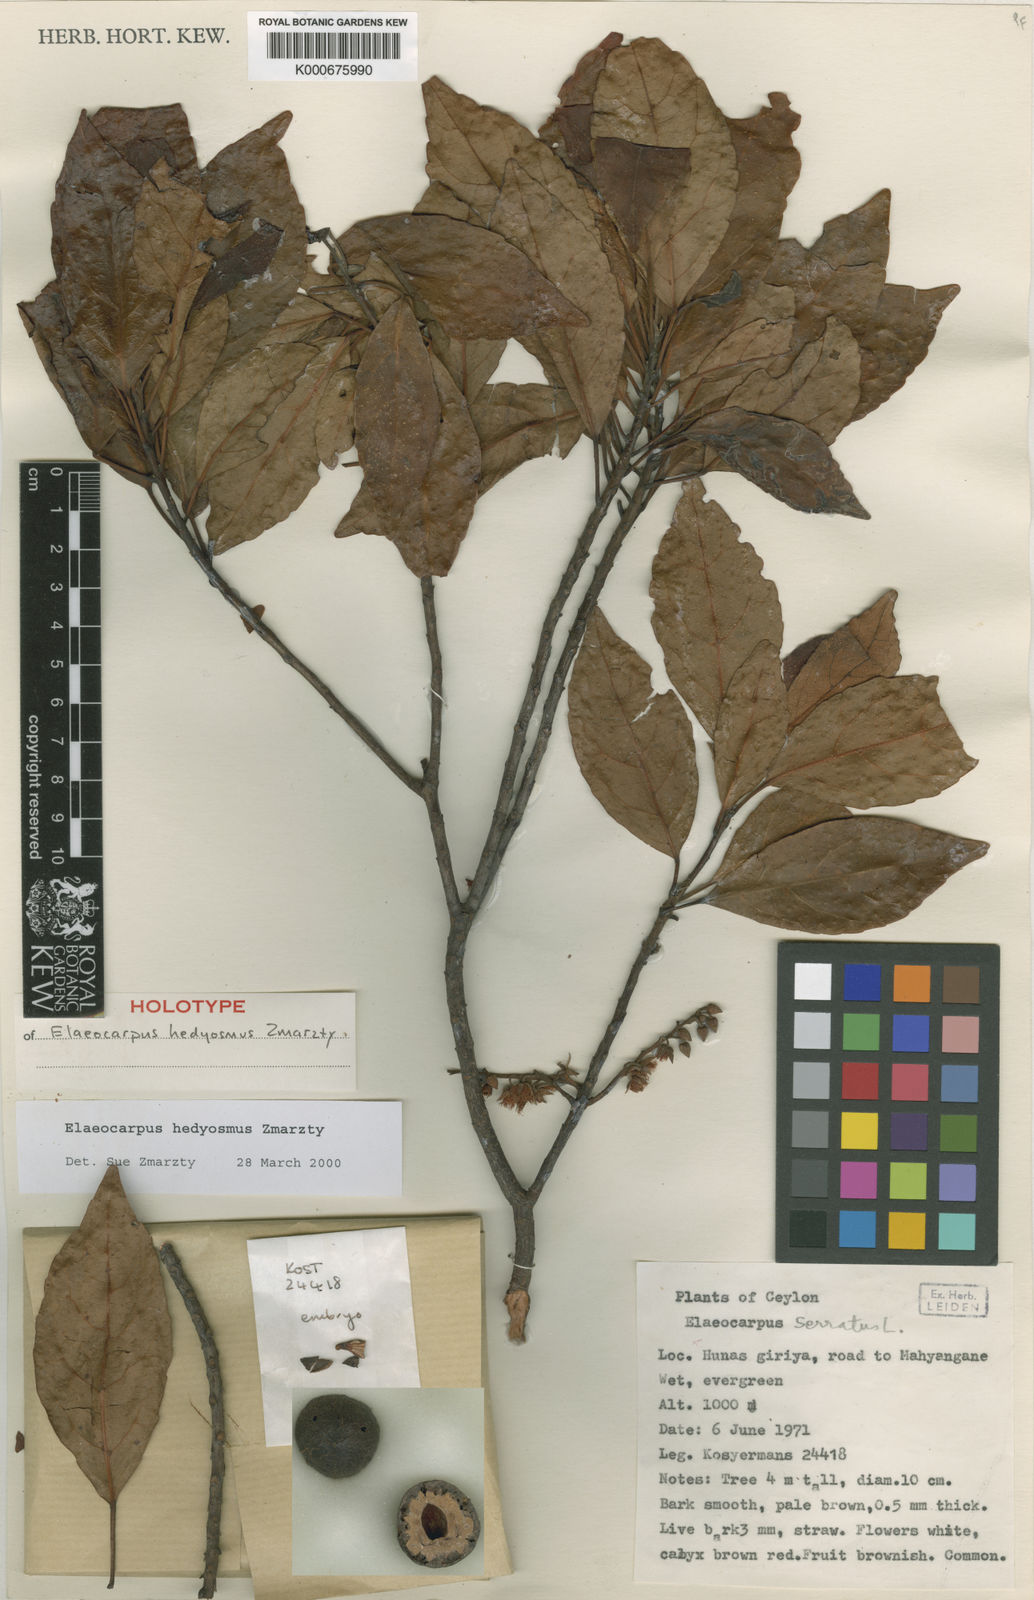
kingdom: Plantae
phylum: Tracheophyta
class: Magnoliopsida
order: Oxalidales
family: Elaeocarpaceae
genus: Elaeocarpus
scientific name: Elaeocarpus hedyosmus
